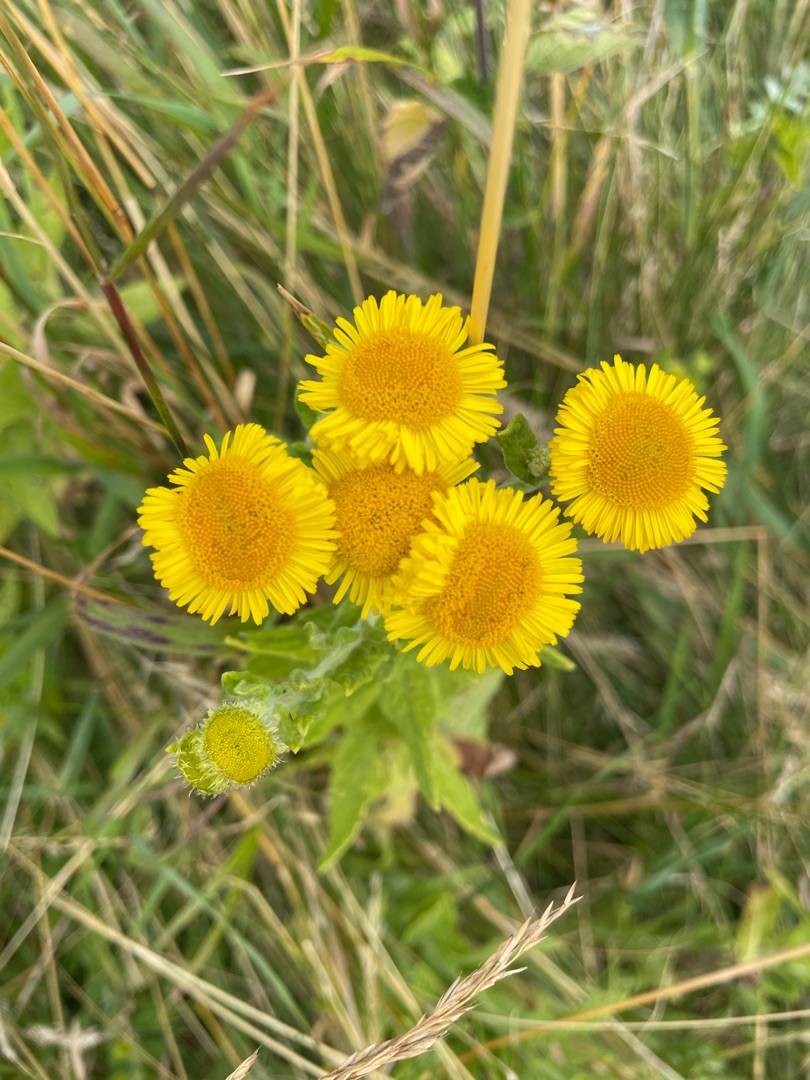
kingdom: Plantae
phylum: Tracheophyta
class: Magnoliopsida
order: Asterales
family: Asteraceae
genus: Pulicaria
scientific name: Pulicaria dysenterica
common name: Strand-loppeurt
